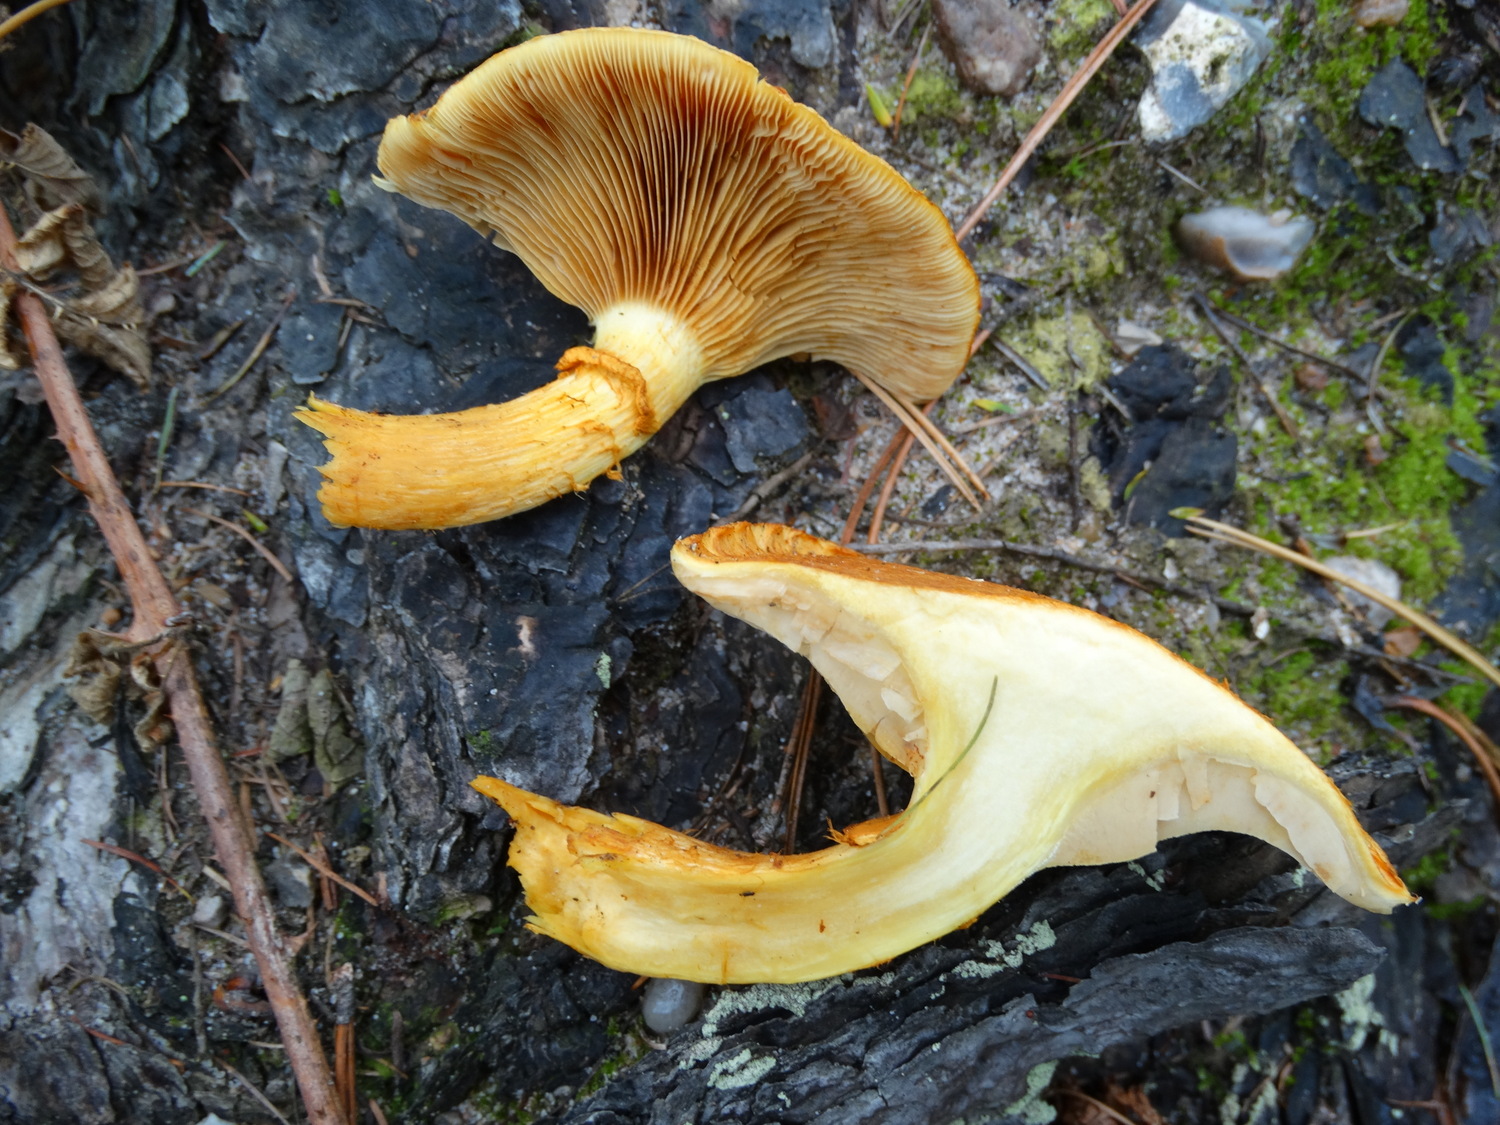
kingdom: Fungi
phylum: Basidiomycota
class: Agaricomycetes
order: Agaricales
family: Hymenogastraceae
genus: Gymnopilus
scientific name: Gymnopilus spectabilis
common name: fibret flammehat
